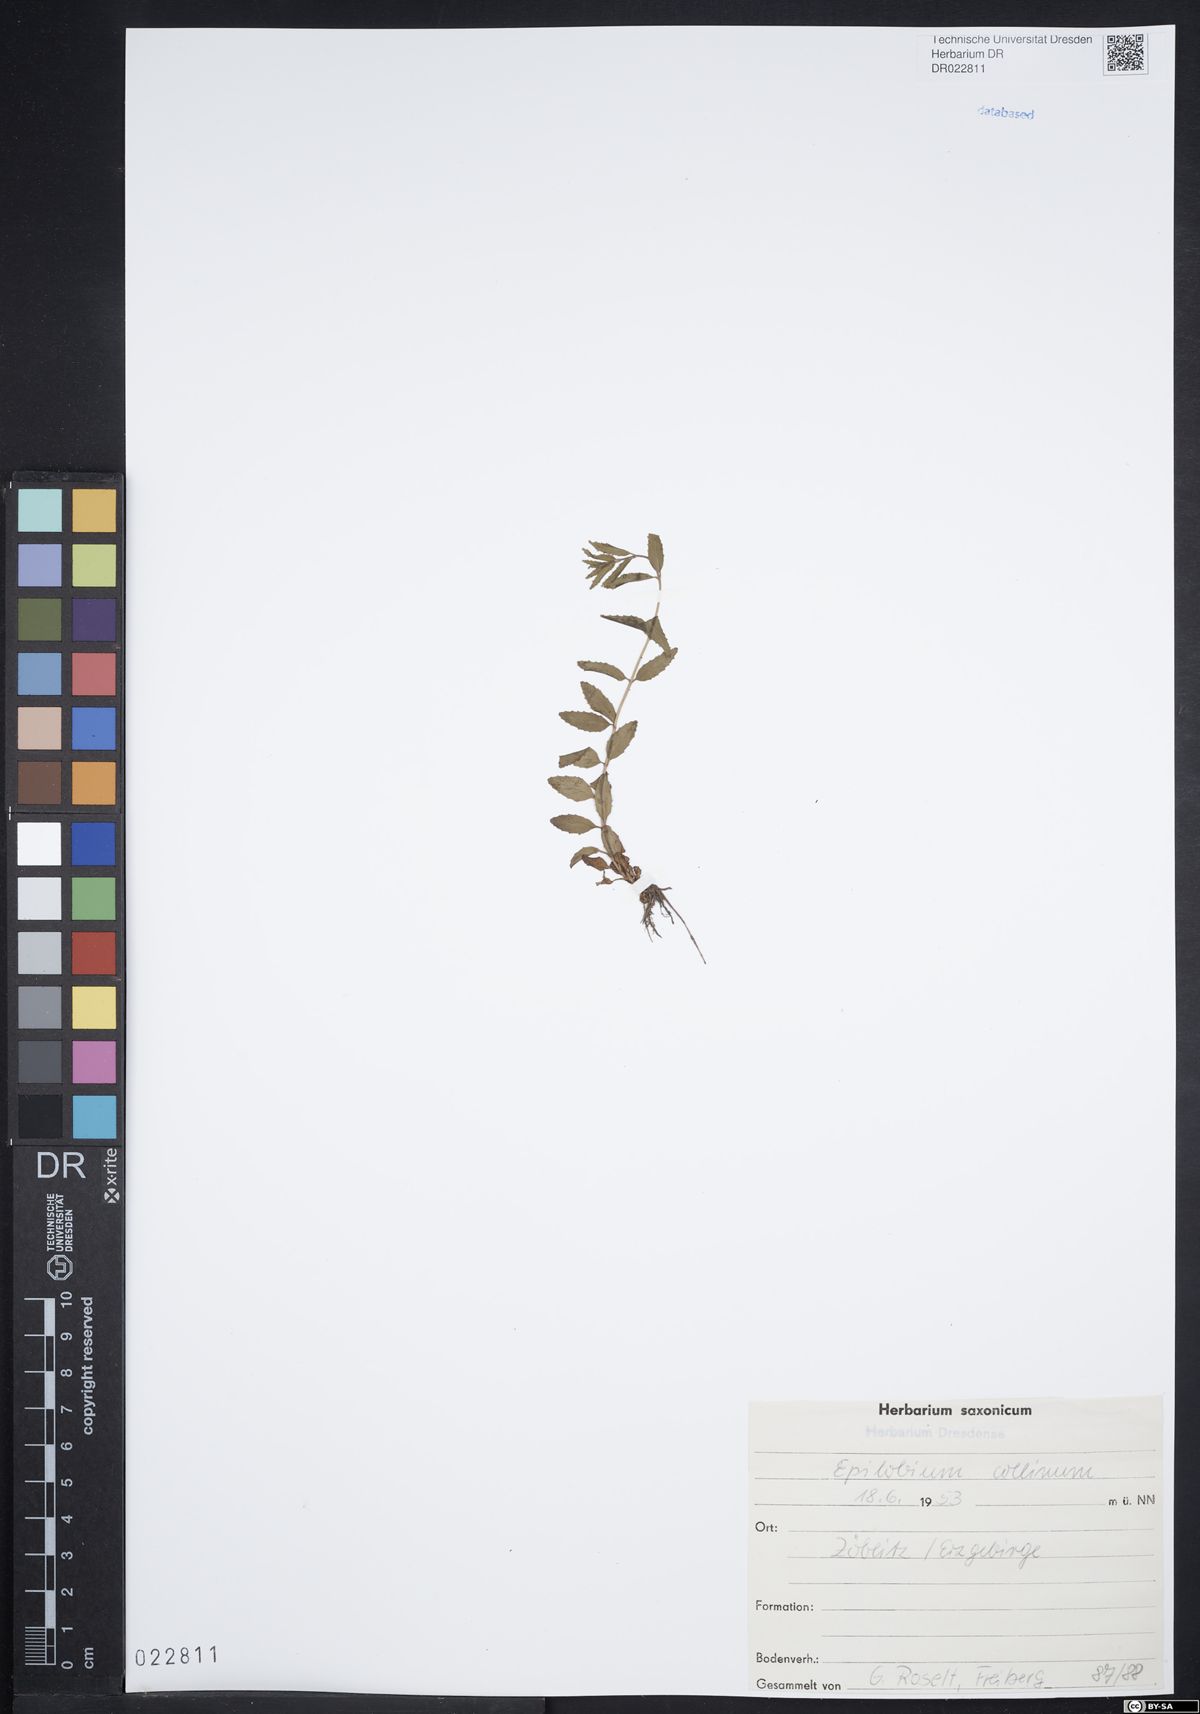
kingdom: Plantae
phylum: Tracheophyta
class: Magnoliopsida
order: Myrtales
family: Onagraceae
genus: Epilobium
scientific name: Epilobium collinum
